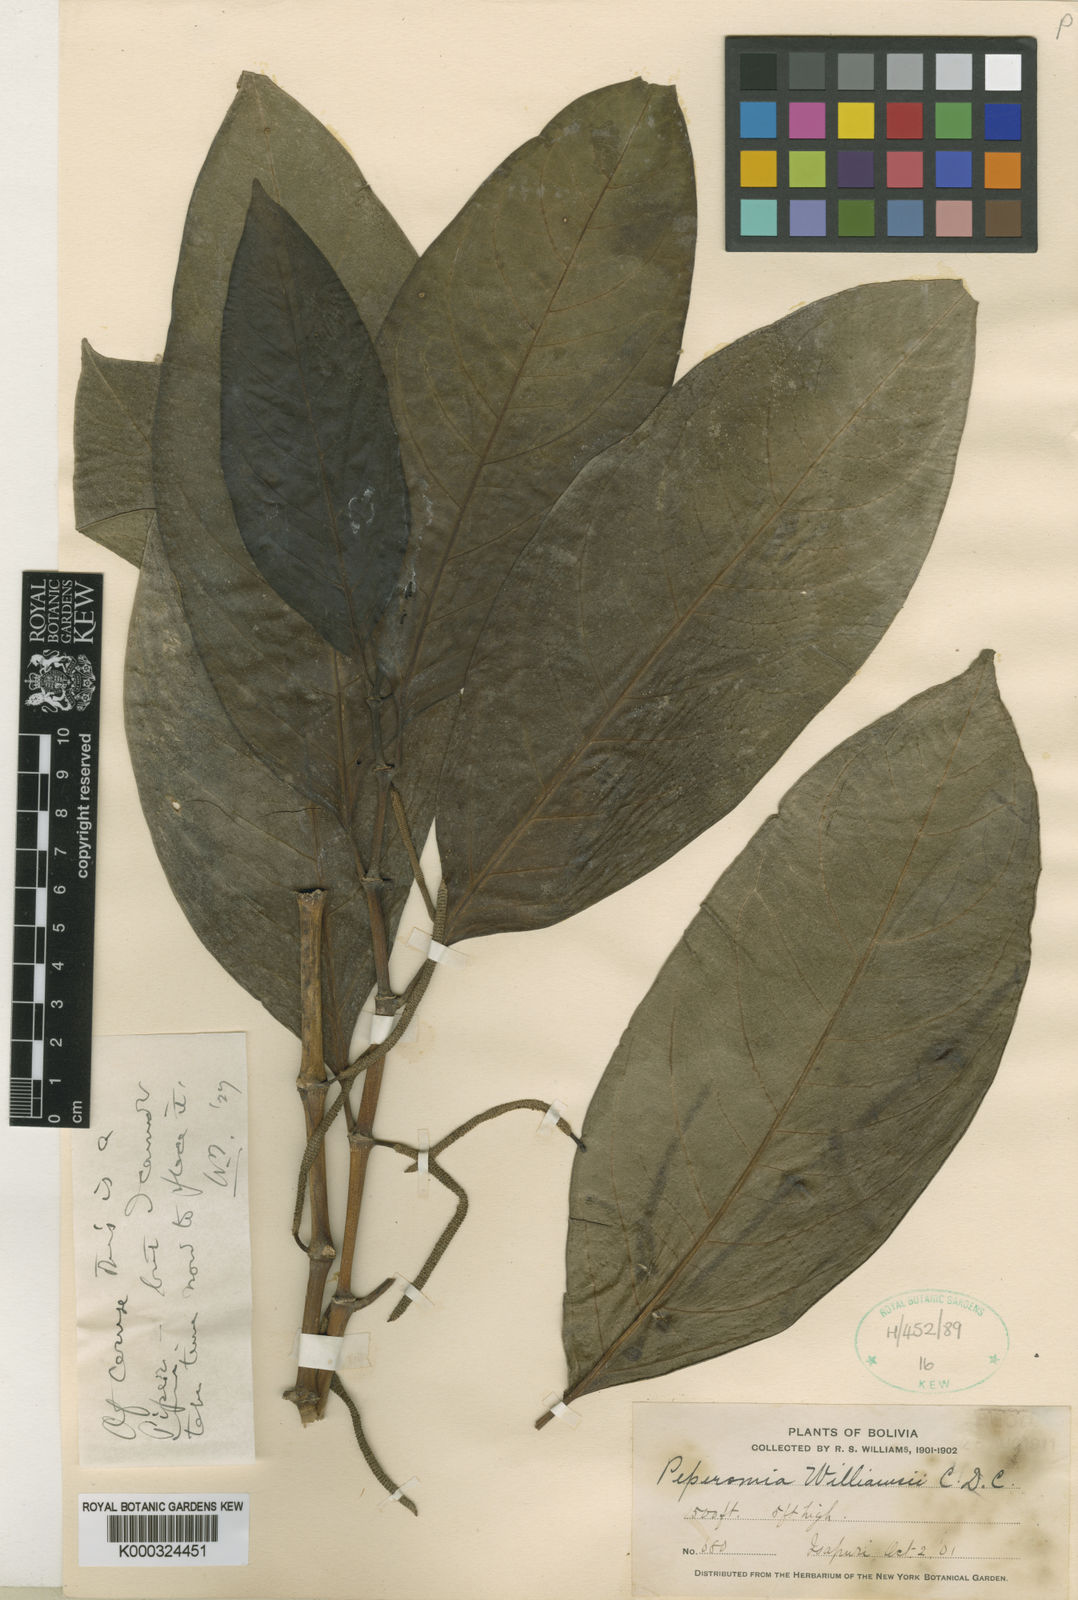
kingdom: Plantae
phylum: Tracheophyta
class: Magnoliopsida
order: Piperales
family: Piperaceae
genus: Piper
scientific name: Piper sibulanum
